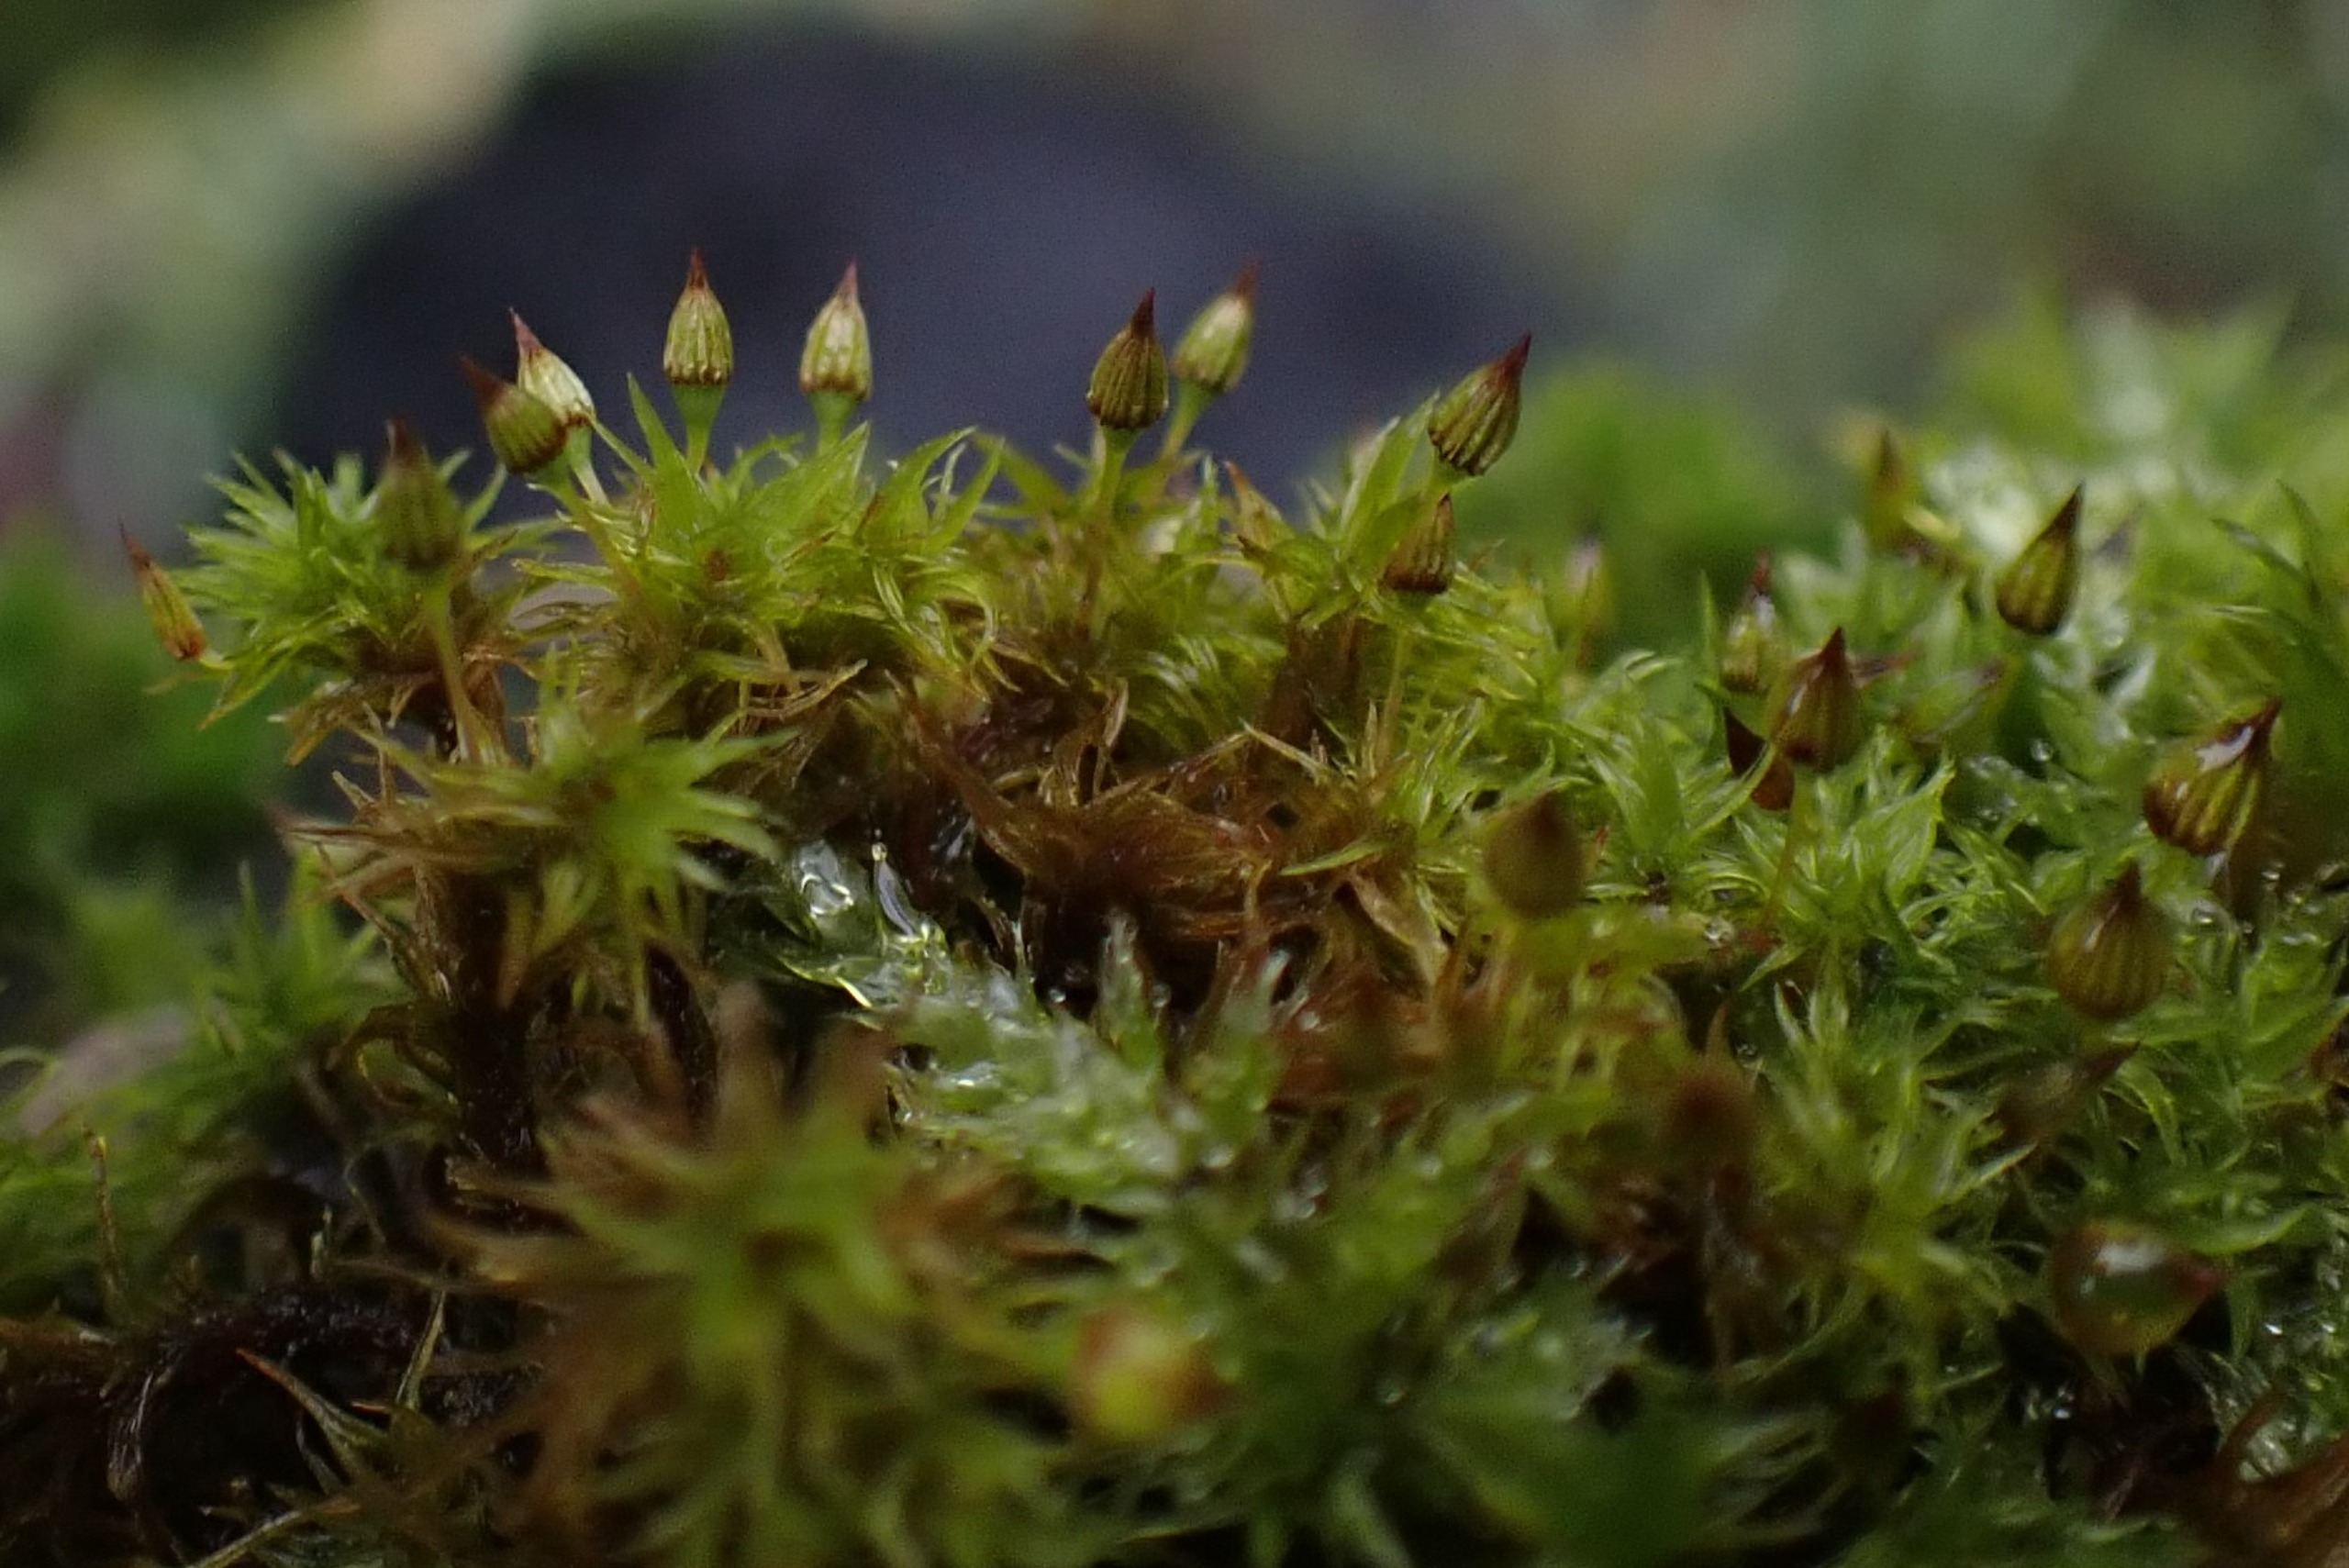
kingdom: Plantae
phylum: Bryophyta
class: Bryopsida
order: Orthotrichales
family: Orthotrichaceae
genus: Orthotrichum
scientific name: Orthotrichum pulchellum
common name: Smuk furehætte
